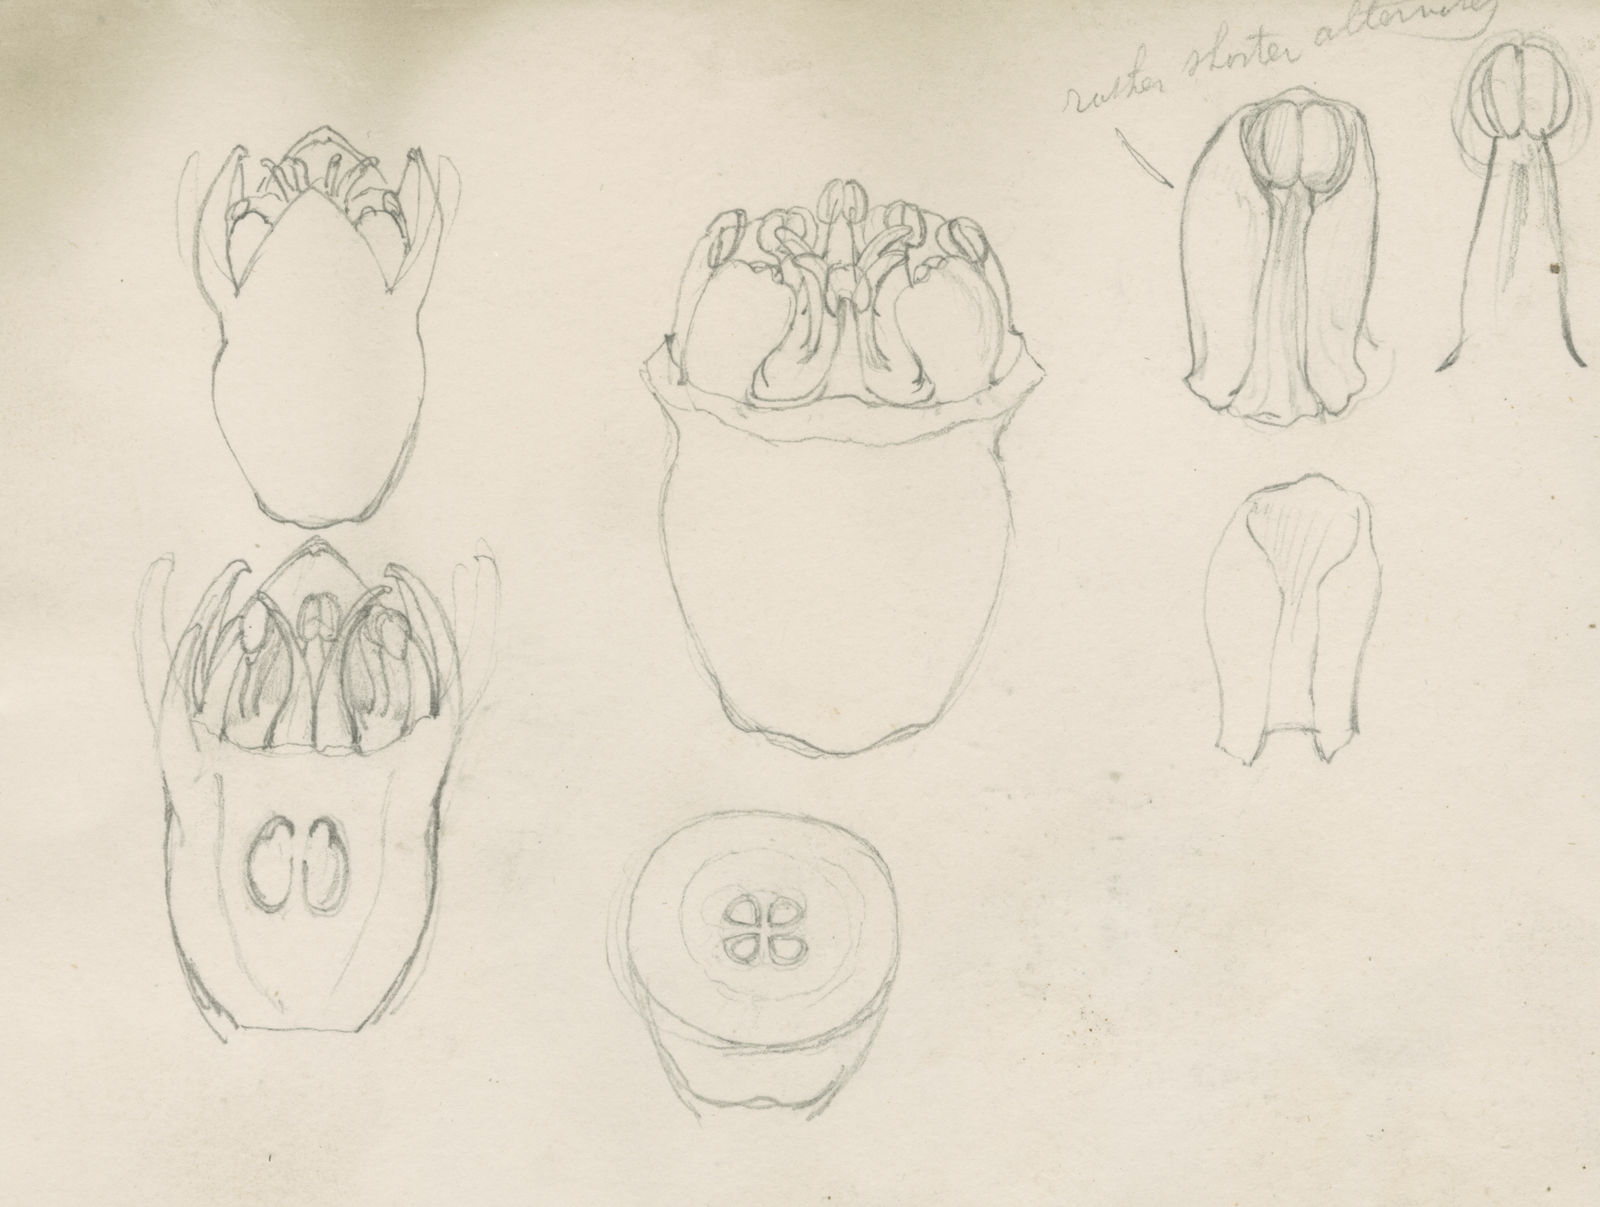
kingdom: Plantae
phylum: Tracheophyta
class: Magnoliopsida
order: Cucurbitales
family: Anisophylleaceae
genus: Anisophyllea
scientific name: Anisophyllea griffithii
